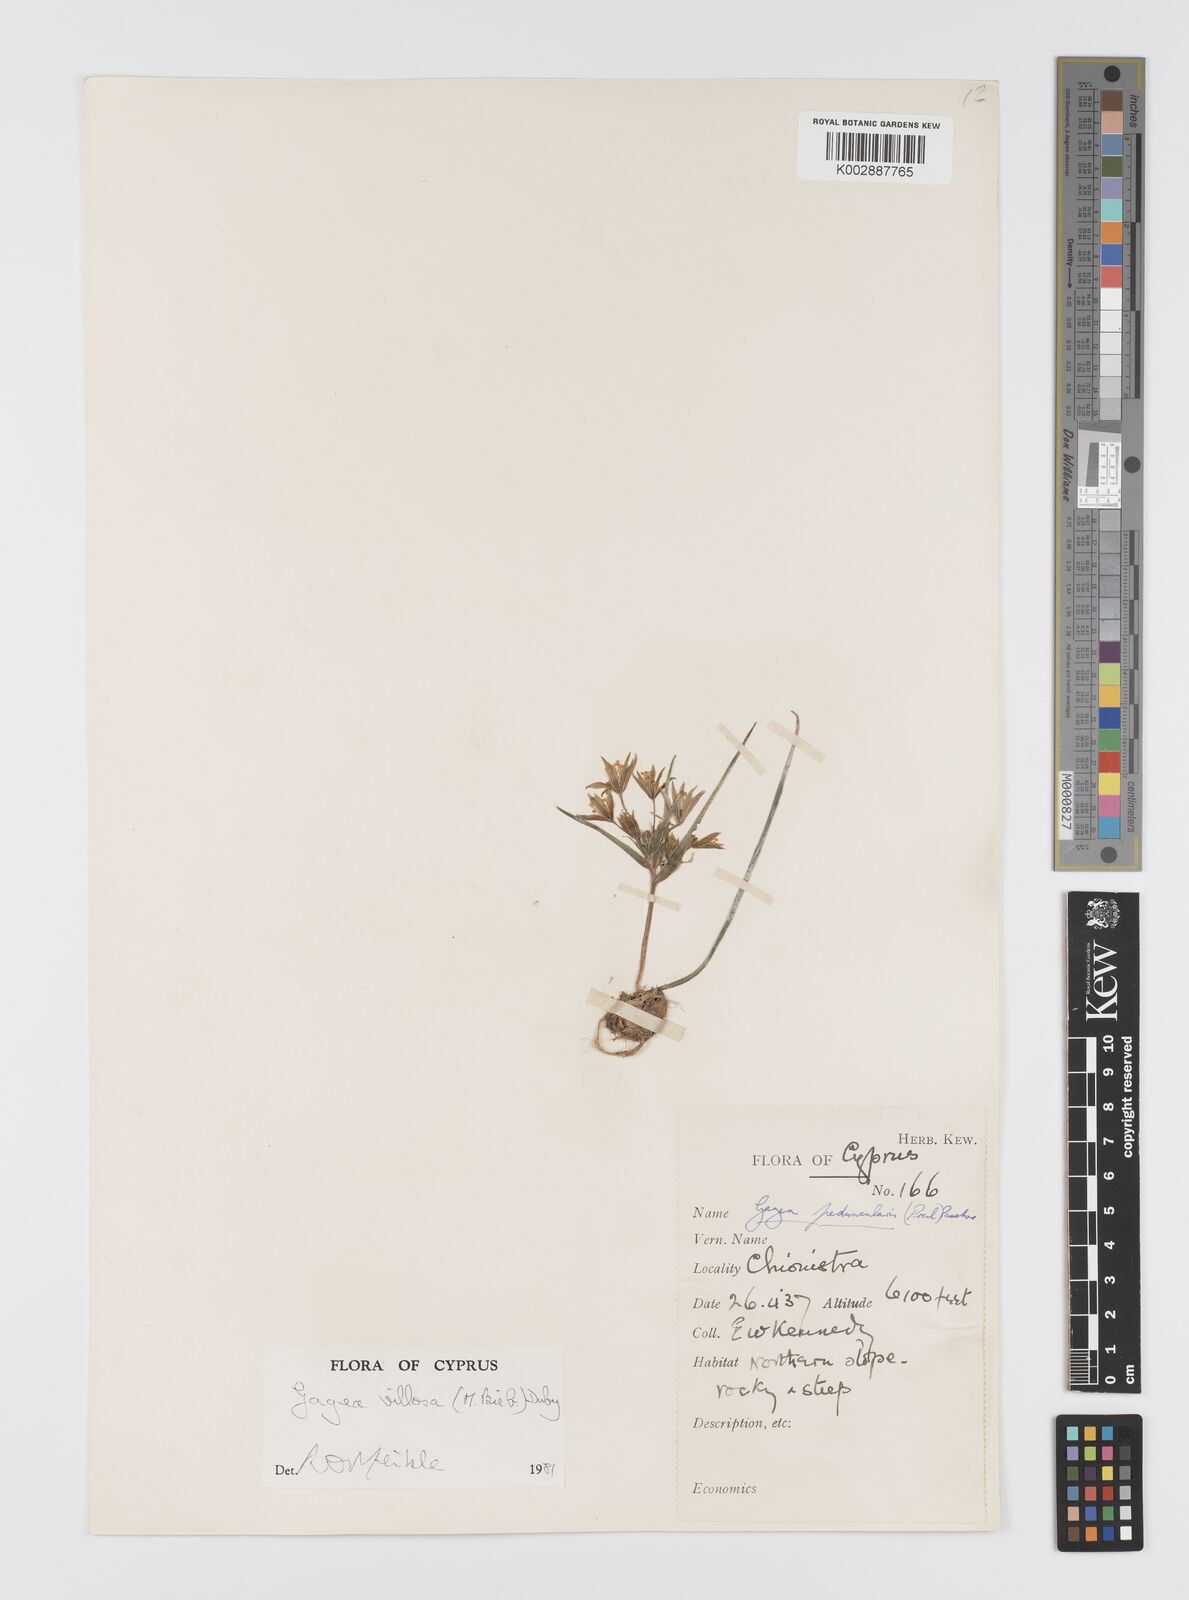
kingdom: Plantae
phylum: Tracheophyta
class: Liliopsida
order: Liliales
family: Liliaceae
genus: Gagea
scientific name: Gagea villosa
